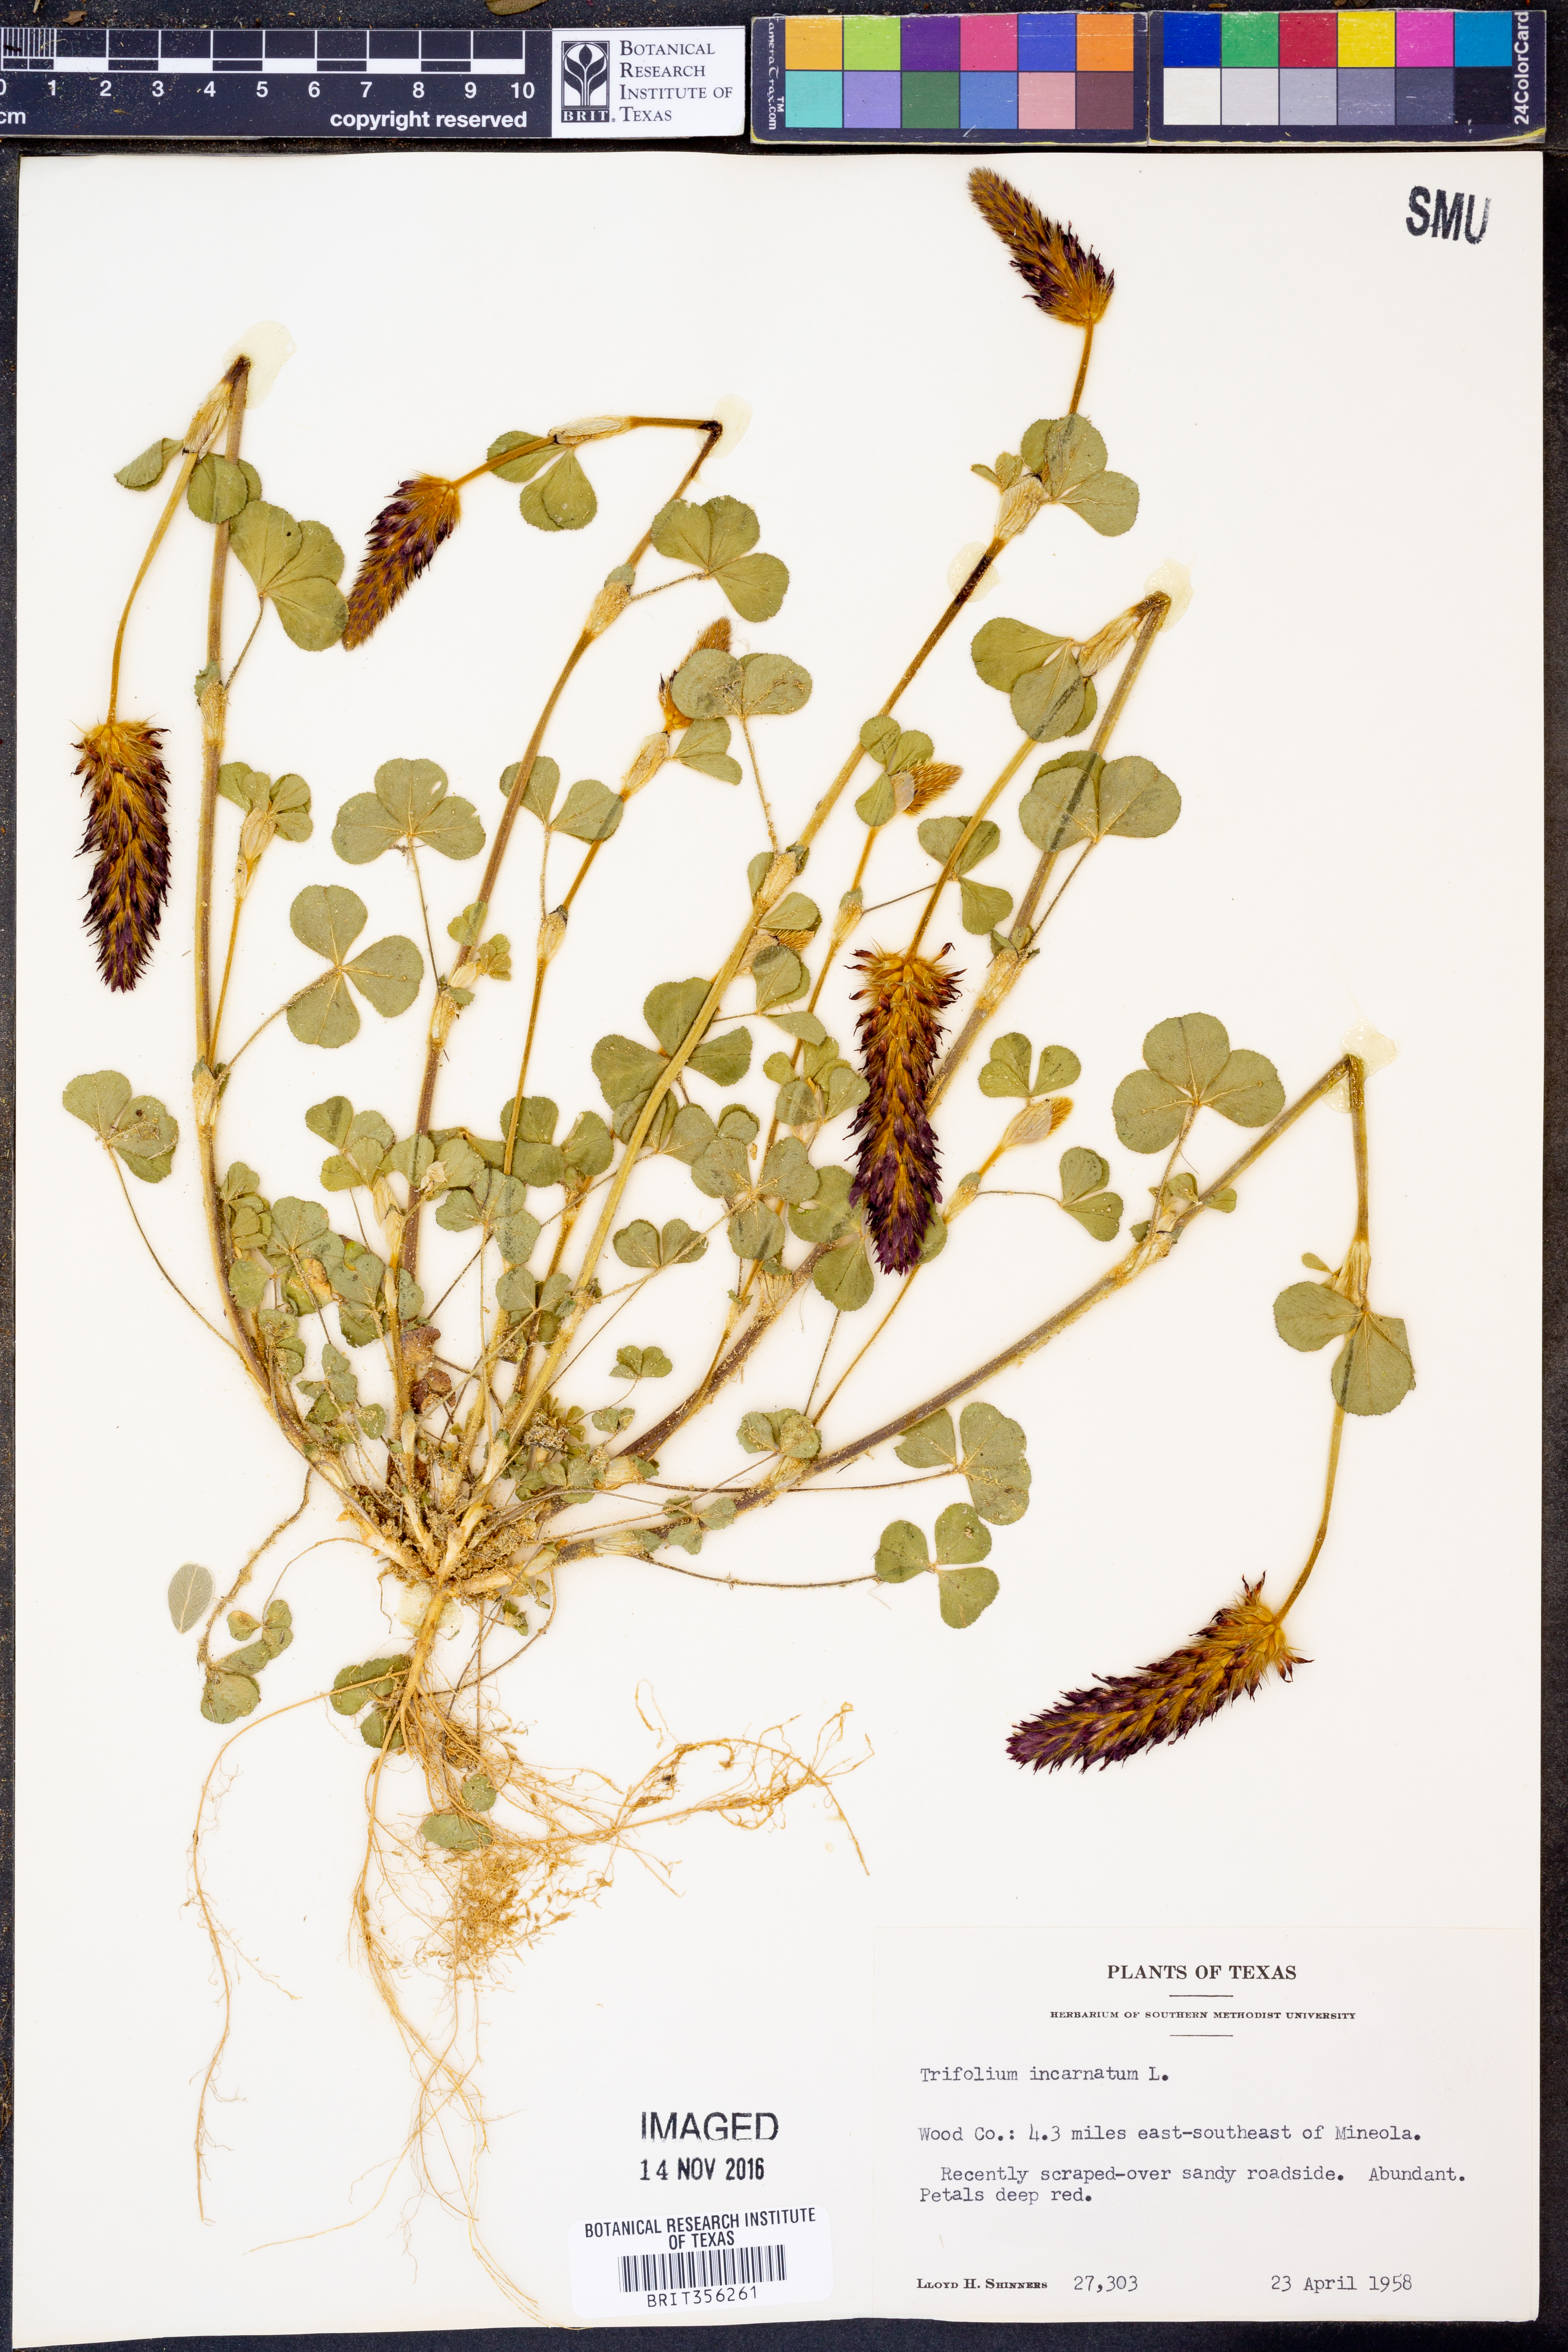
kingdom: Plantae
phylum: Tracheophyta
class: Magnoliopsida
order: Fabales
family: Fabaceae
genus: Trifolium
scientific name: Trifolium incarnatum
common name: Crimson clover
